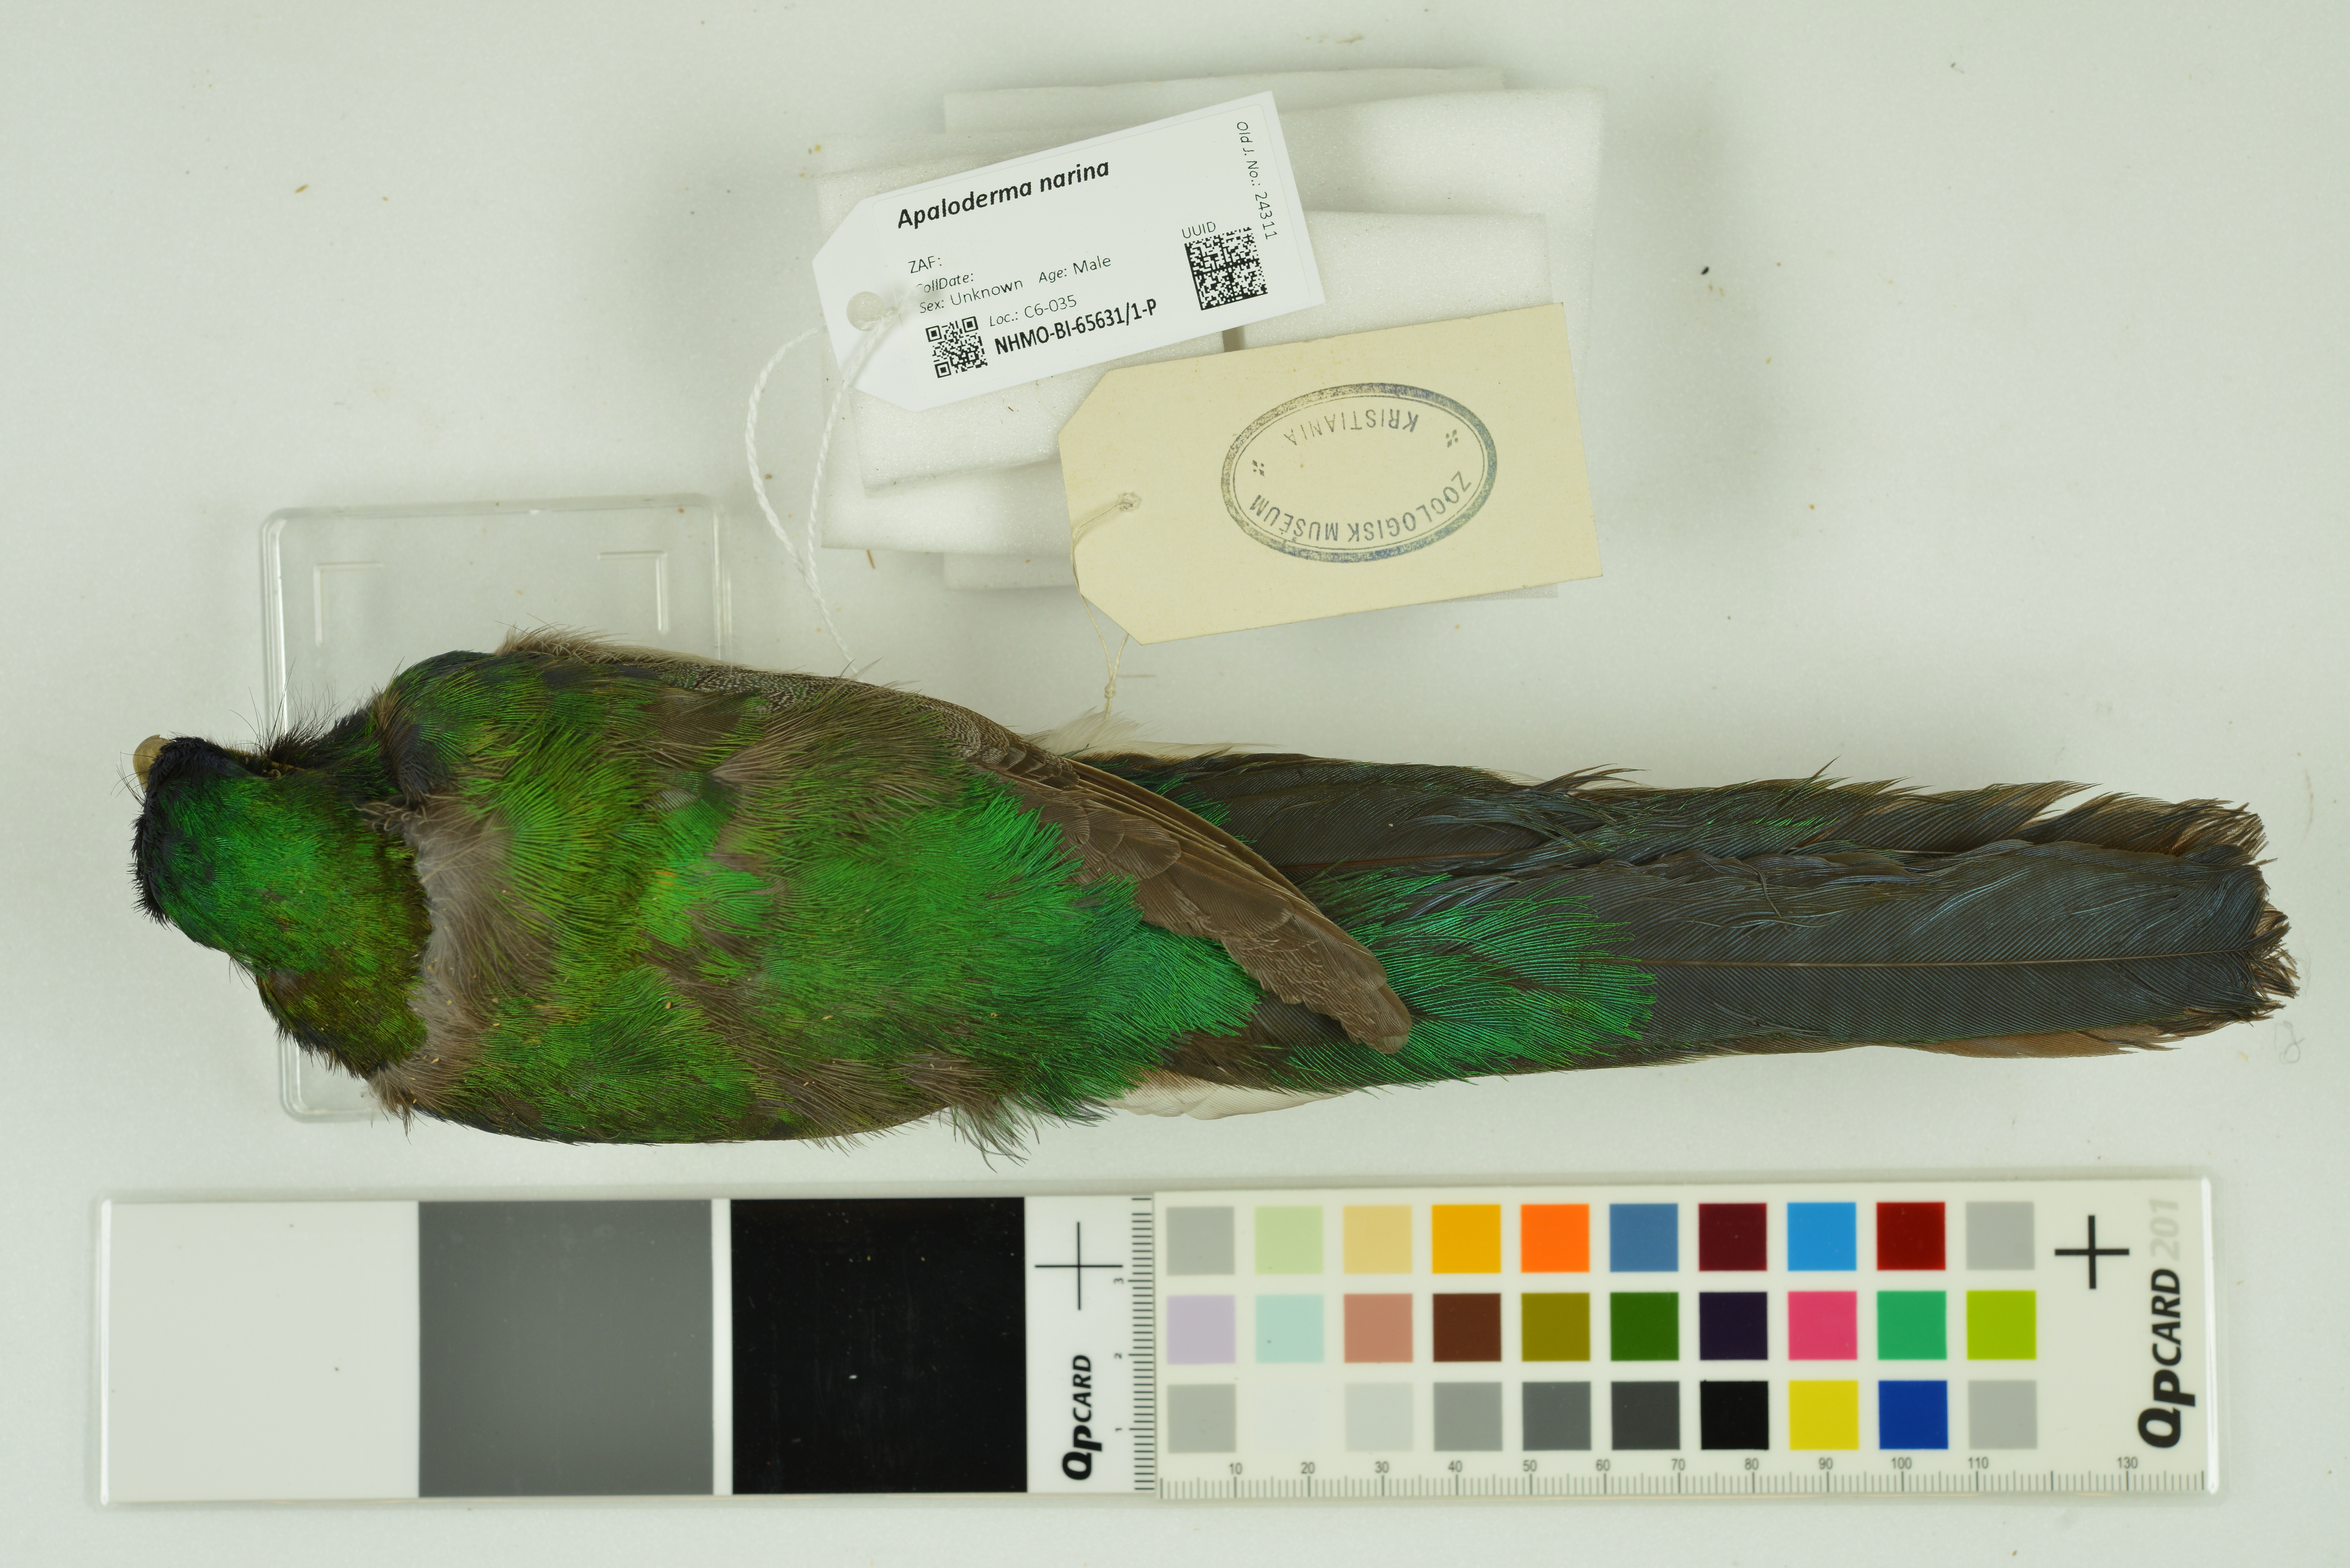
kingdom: Animalia
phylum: Chordata
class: Aves
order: Trogoniformes
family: Trogonidae
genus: Apaloderma
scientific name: Apaloderma narina
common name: Narina trogon
